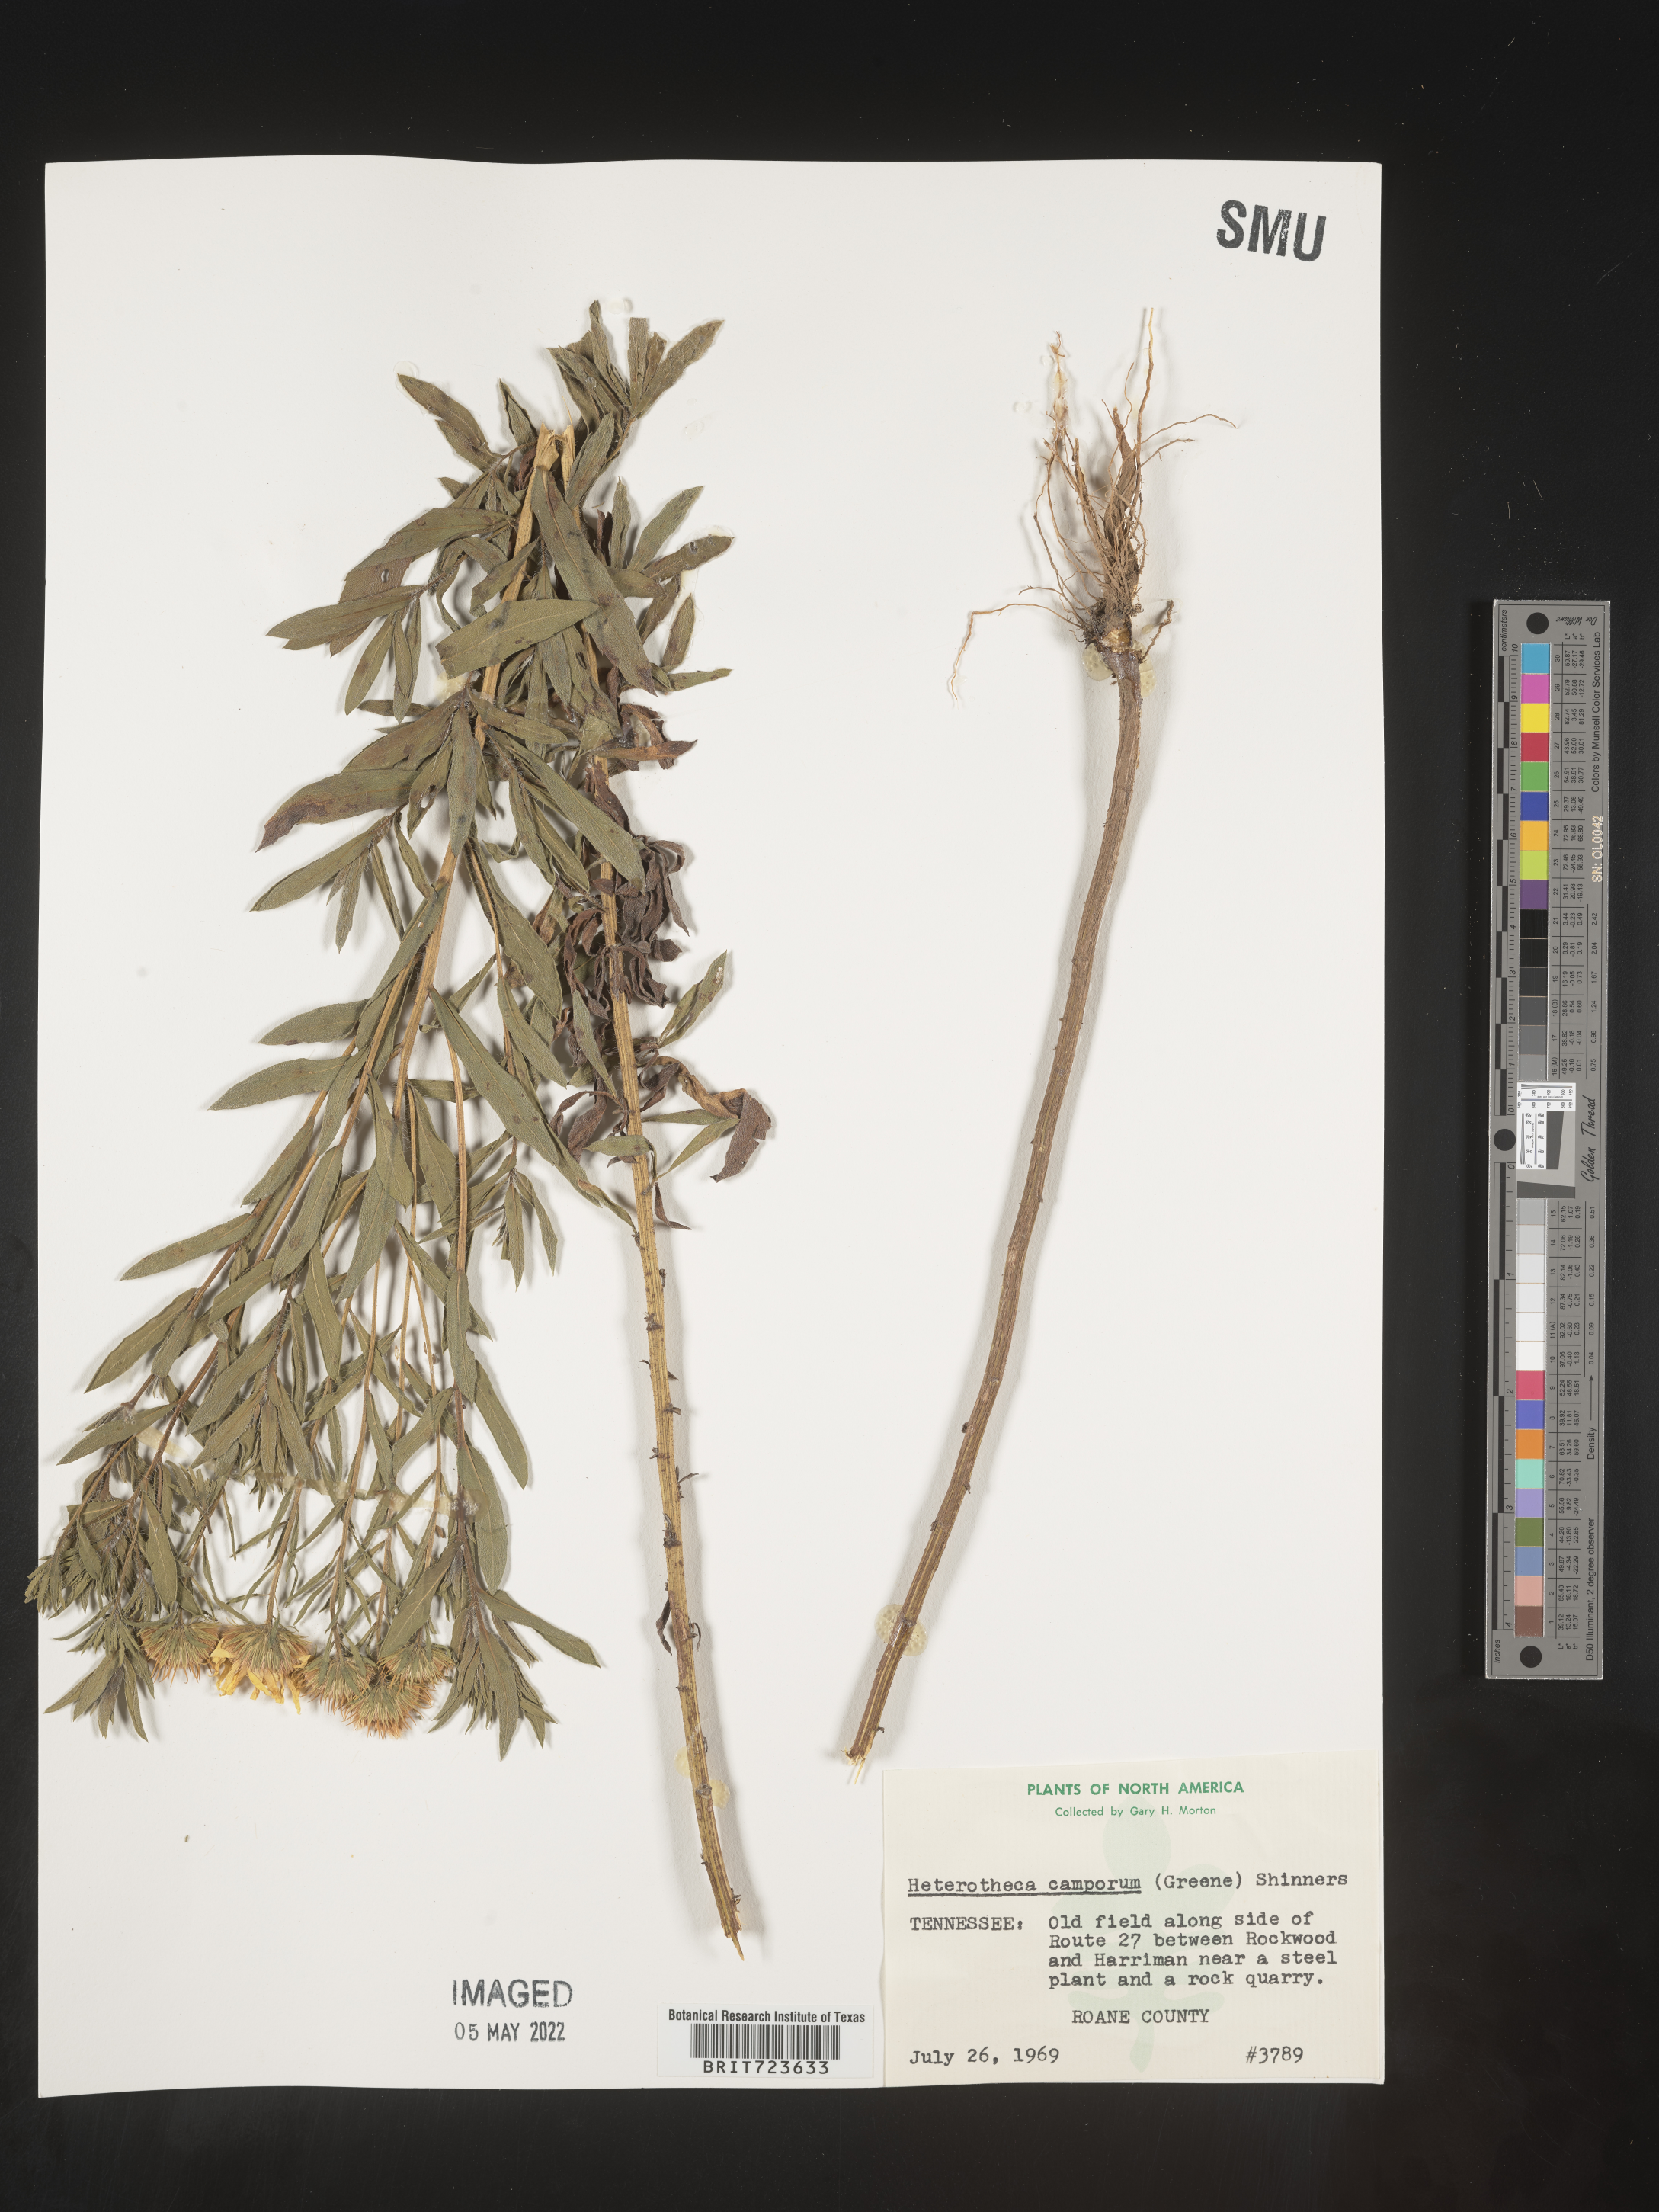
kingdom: Plantae
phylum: Tracheophyta
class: Magnoliopsida
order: Asterales
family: Asteraceae
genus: Heterotheca
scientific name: Heterotheca camporum
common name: Prairie golden-aster
